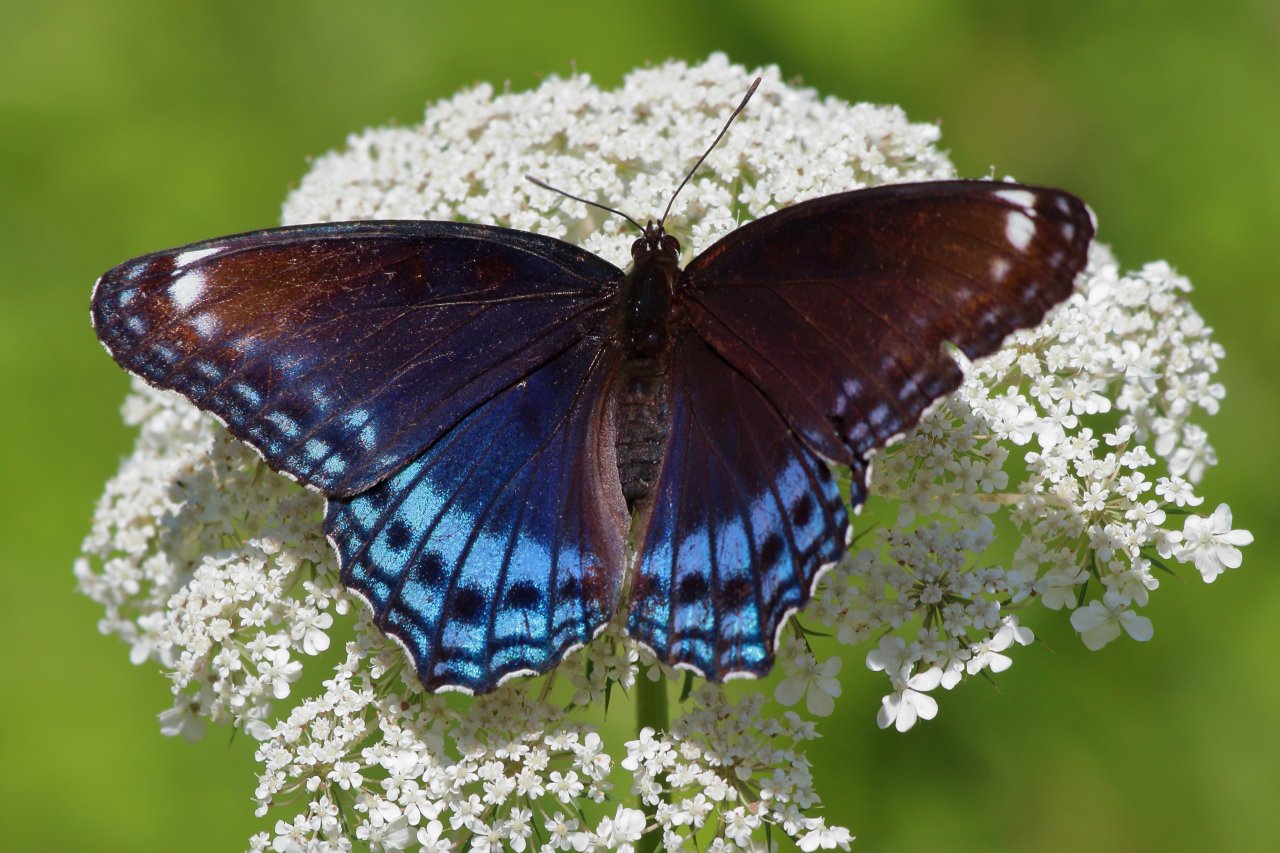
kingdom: Animalia
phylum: Arthropoda
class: Insecta
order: Lepidoptera
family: Nymphalidae
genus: Limenitis
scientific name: Limenitis astyanax
